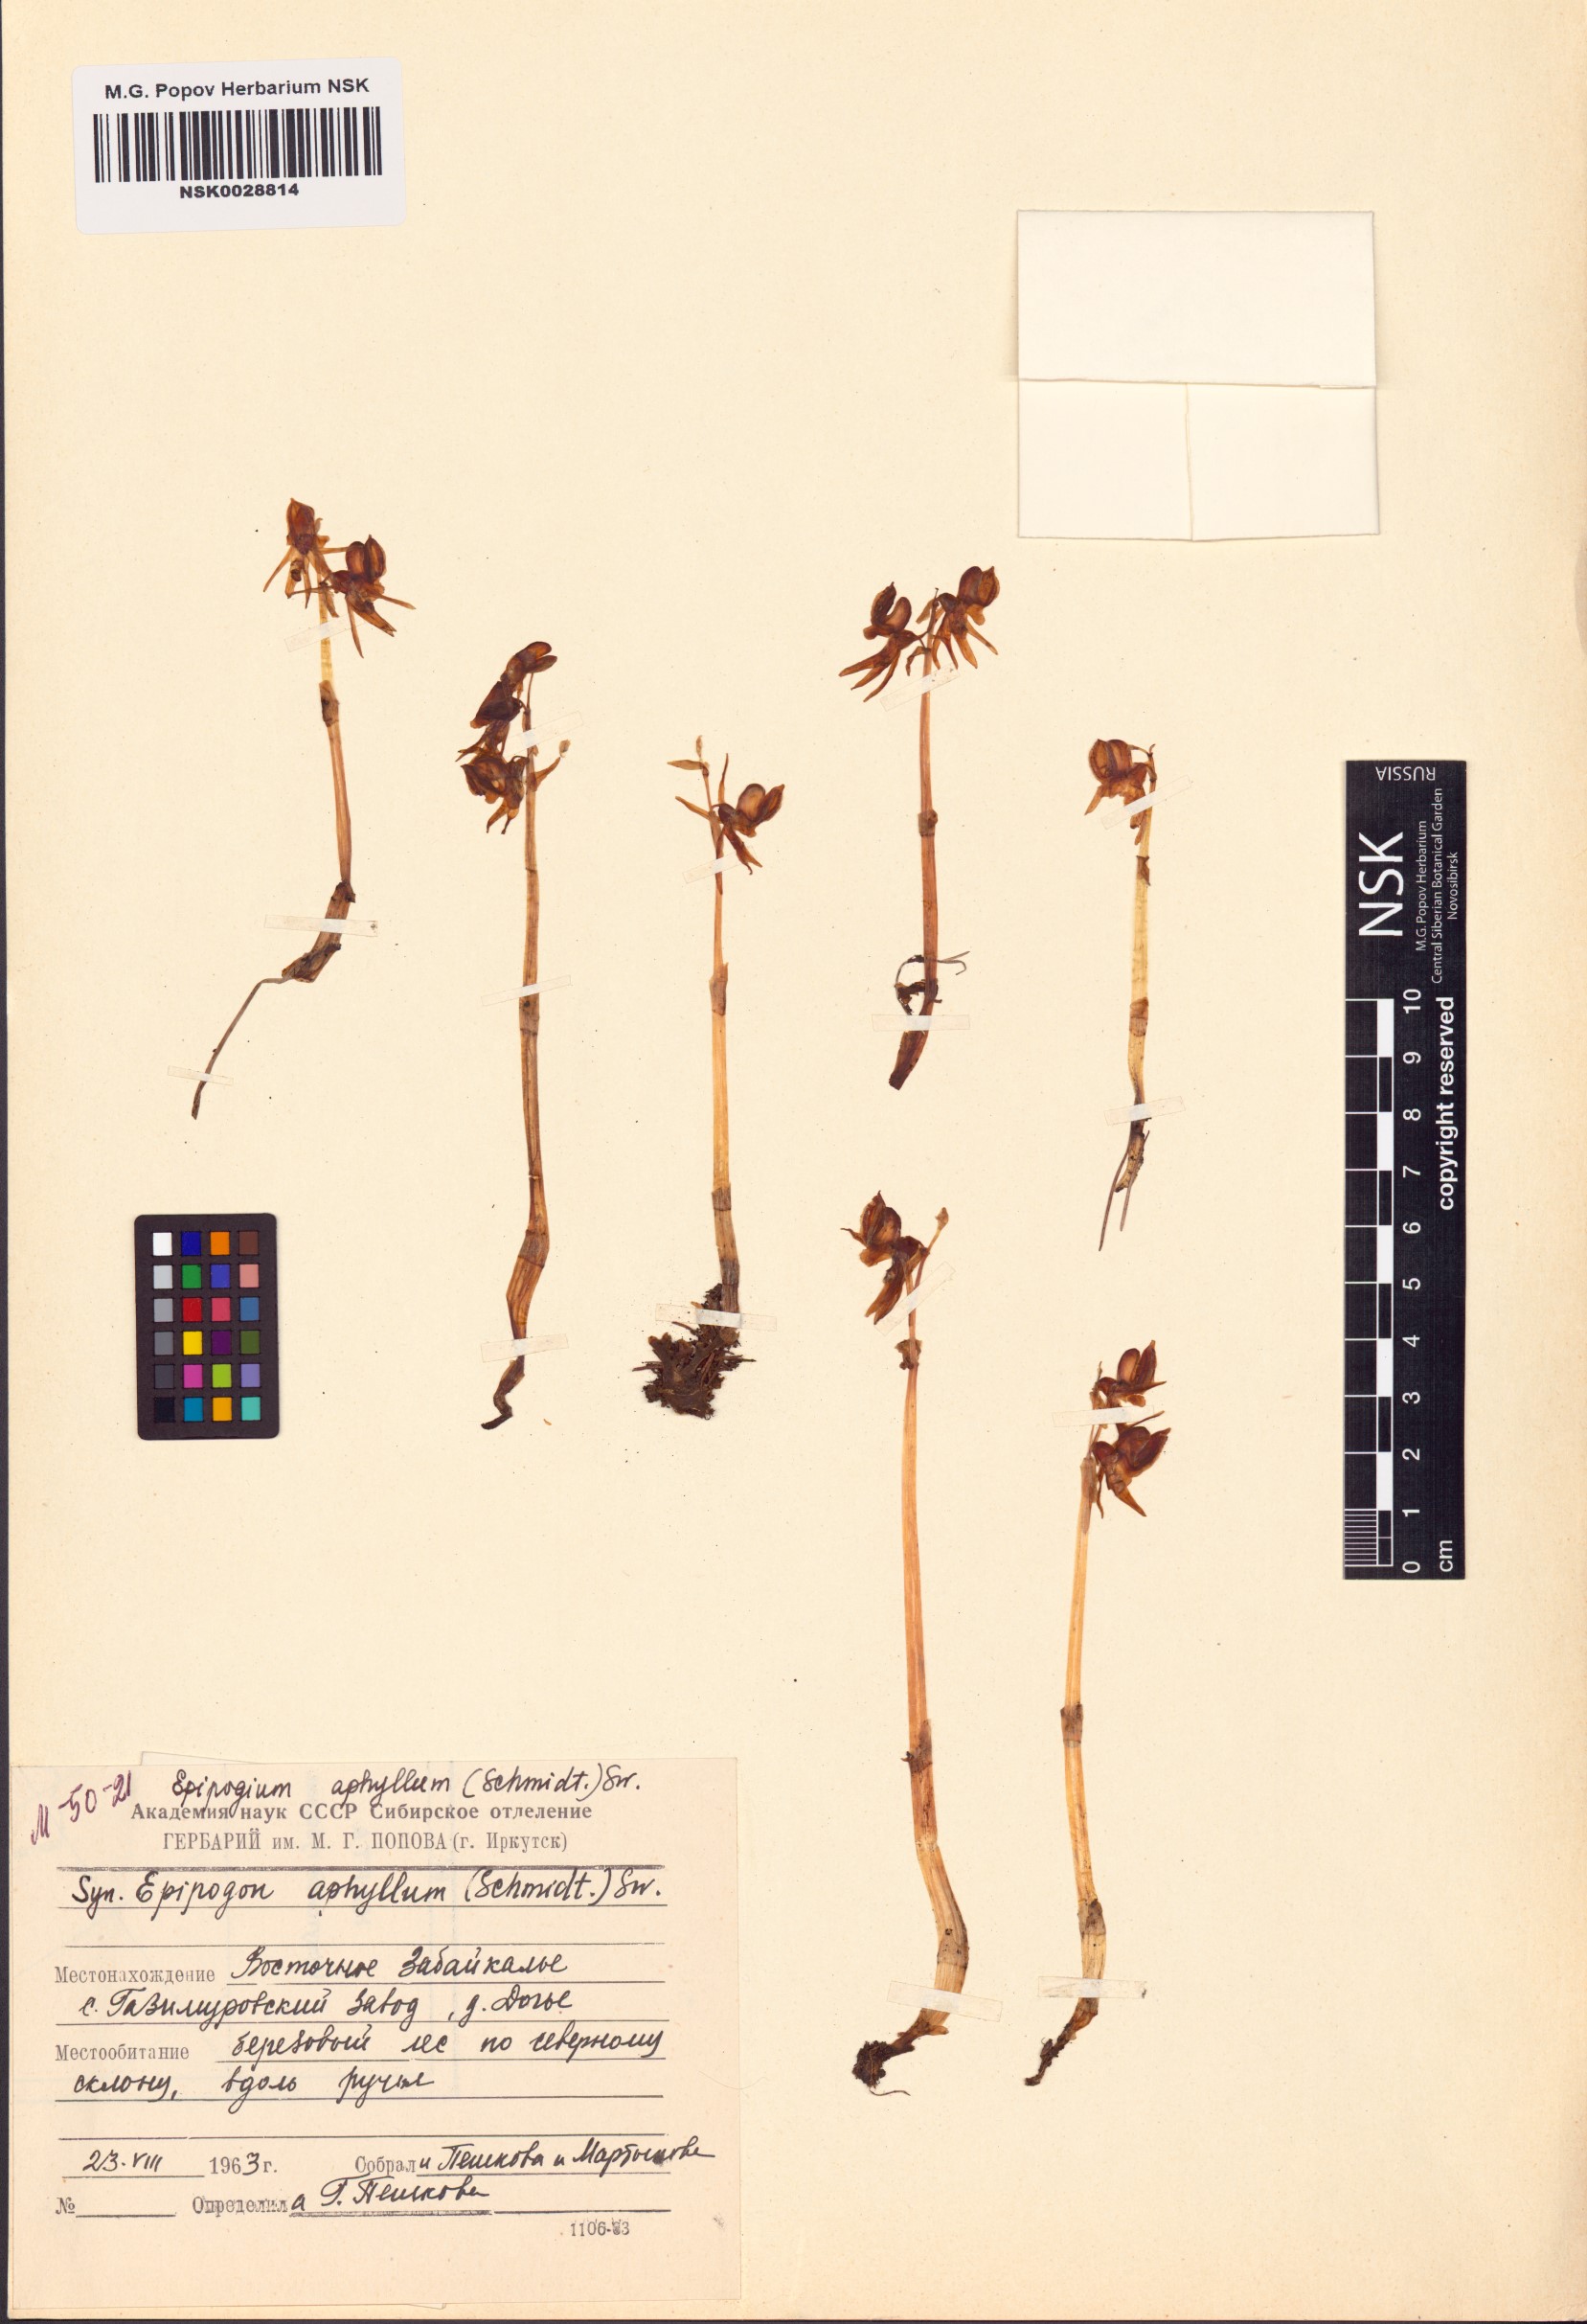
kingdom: Plantae
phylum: Tracheophyta
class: Liliopsida
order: Asparagales
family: Orchidaceae
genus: Epipogium
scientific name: Epipogium aphyllum
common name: Ghost orchid
